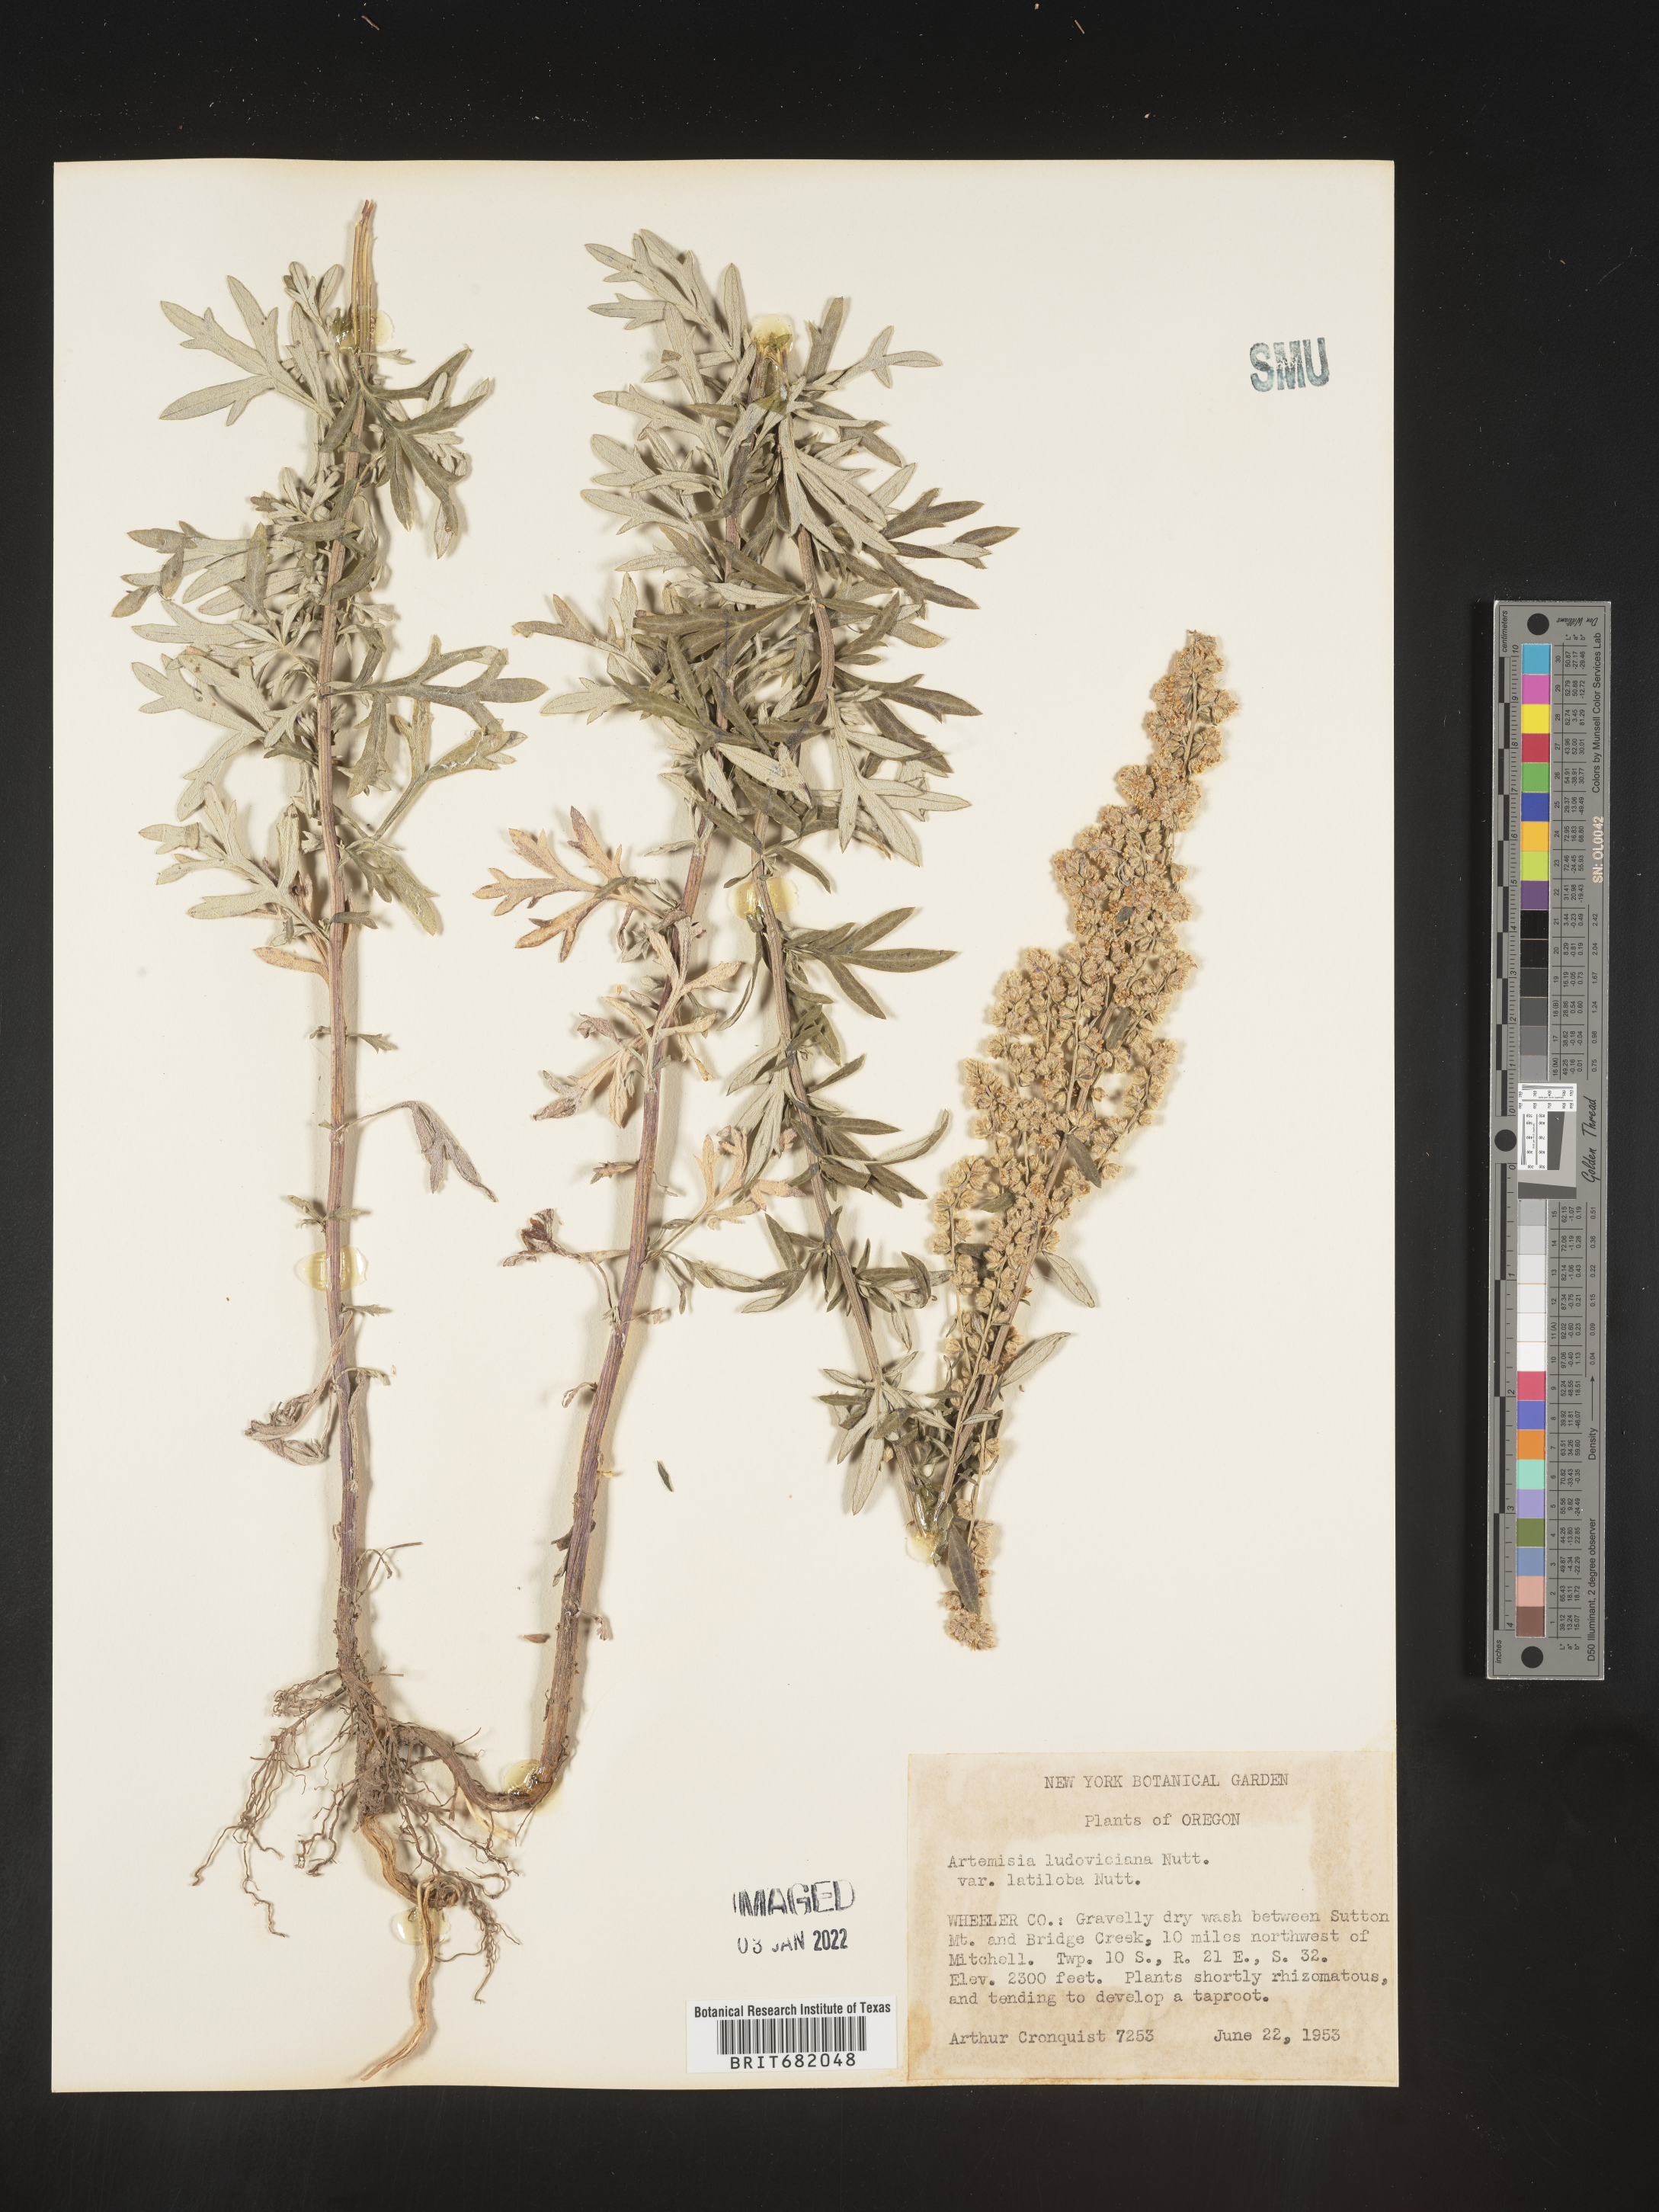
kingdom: Plantae
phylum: Tracheophyta
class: Magnoliopsida
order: Asterales
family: Asteraceae
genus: Artemisia
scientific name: Artemisia ludoviciana
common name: Western mugwort
